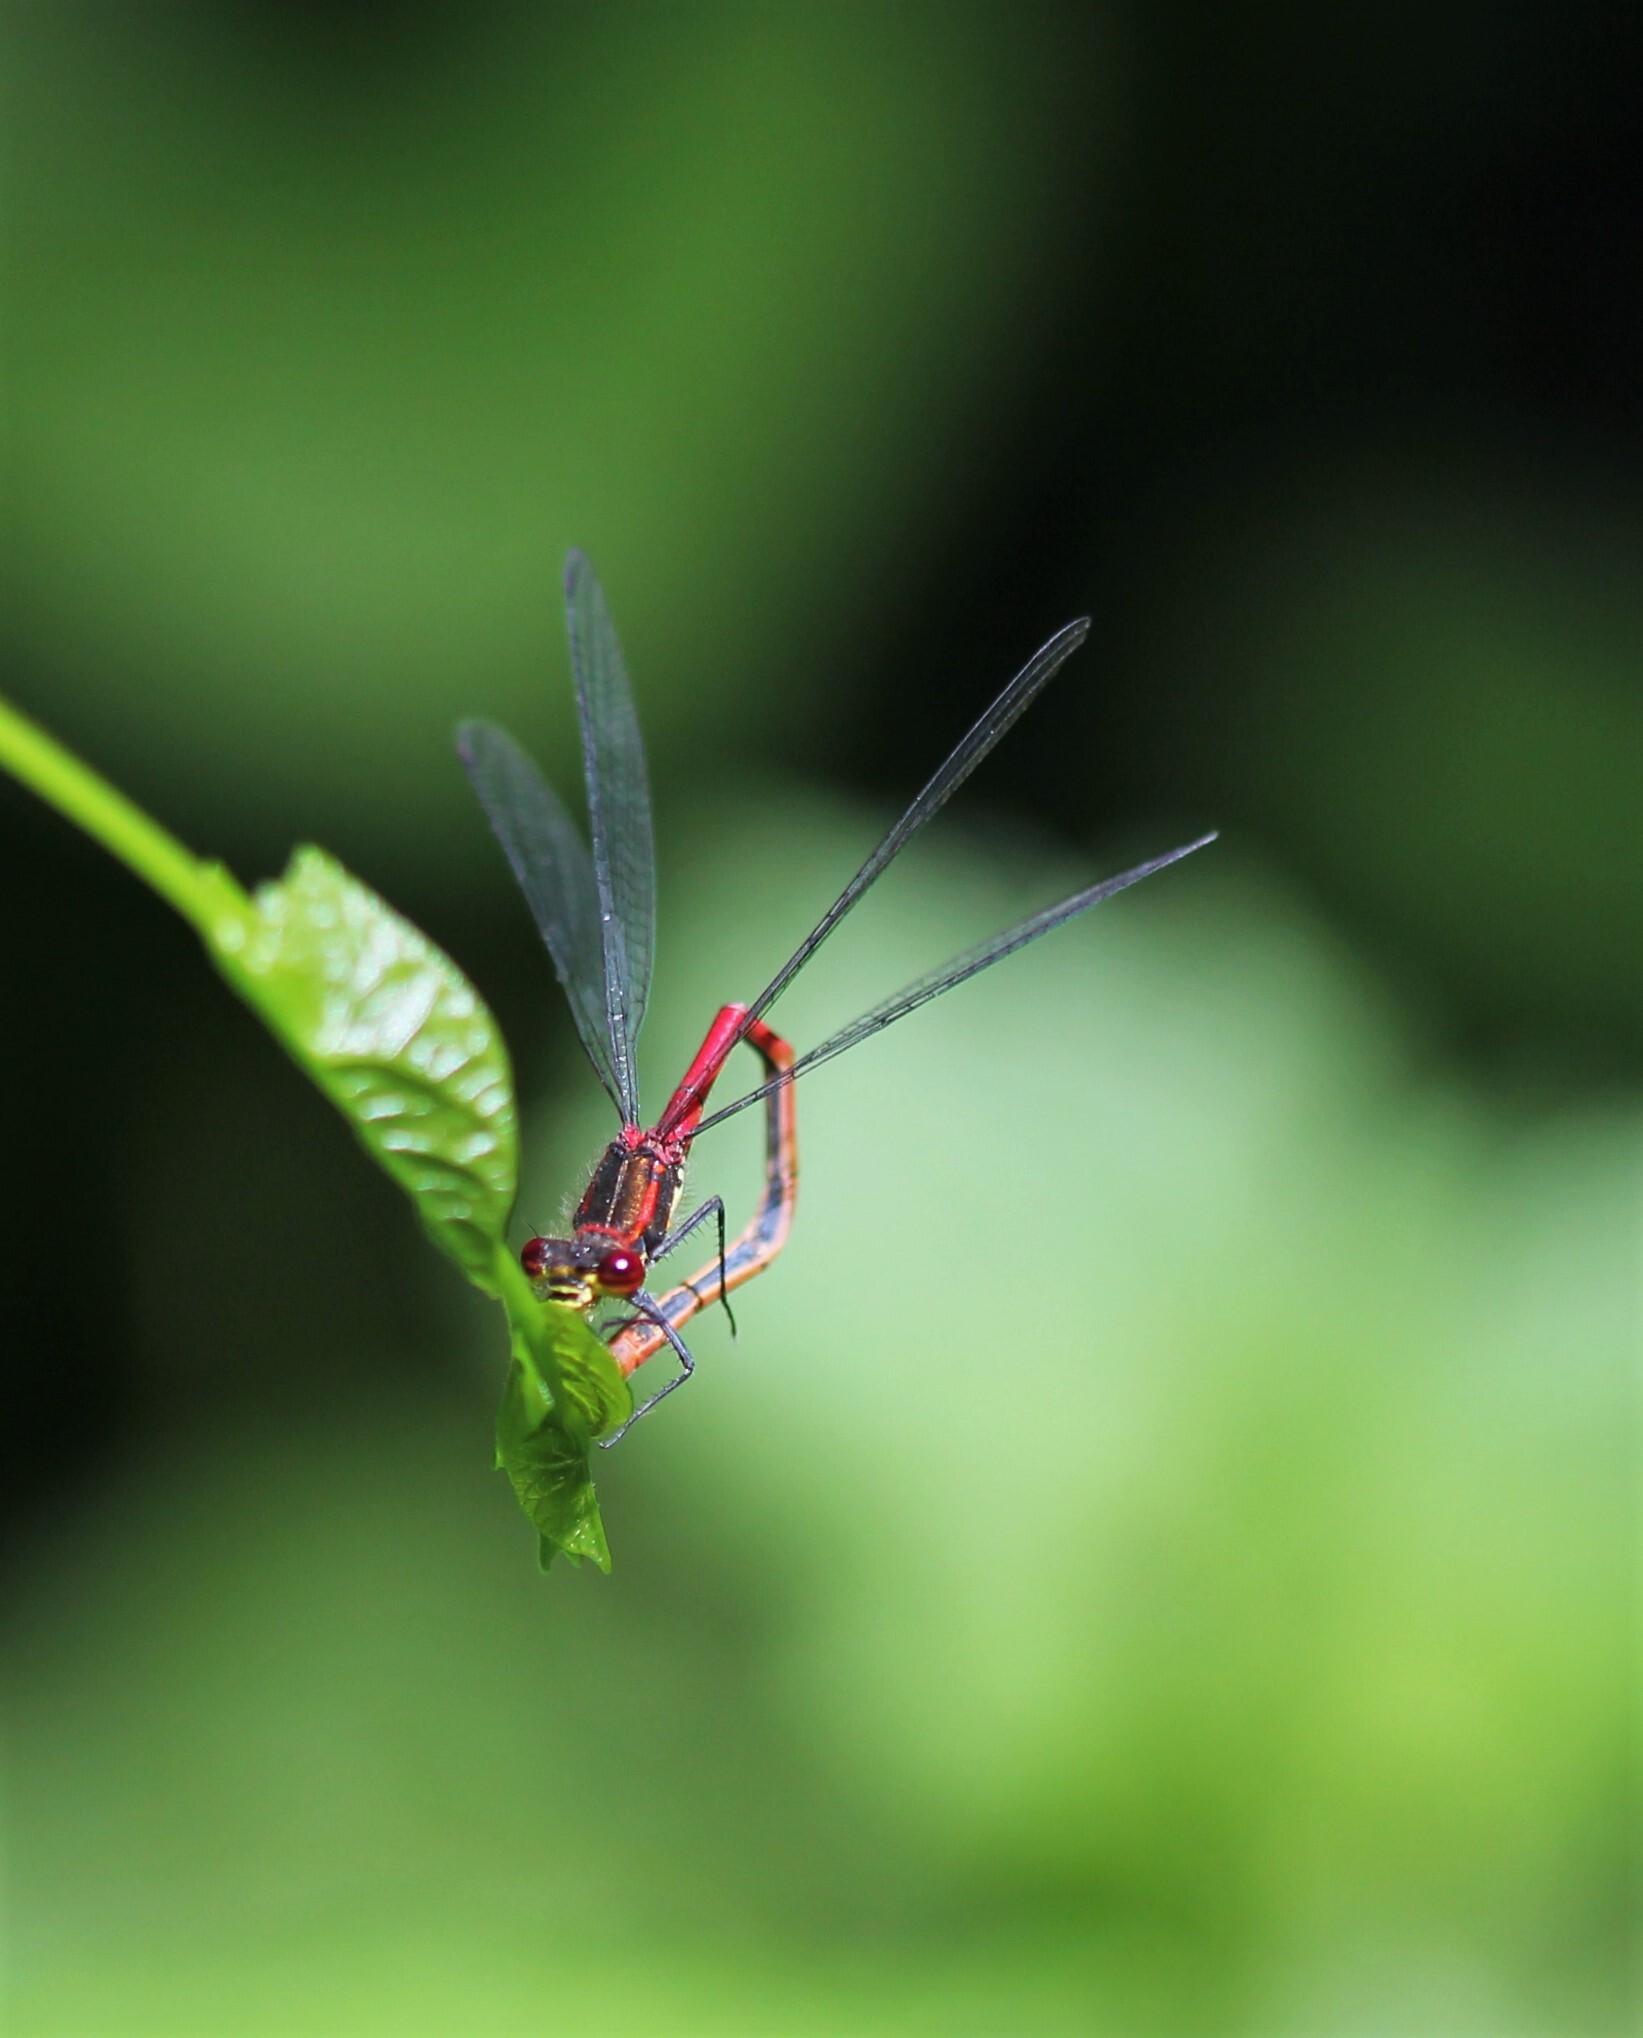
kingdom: Animalia
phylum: Arthropoda
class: Insecta
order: Odonata
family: Coenagrionidae
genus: Pyrrhosoma
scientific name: Pyrrhosoma nymphula
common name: Large red damsel
